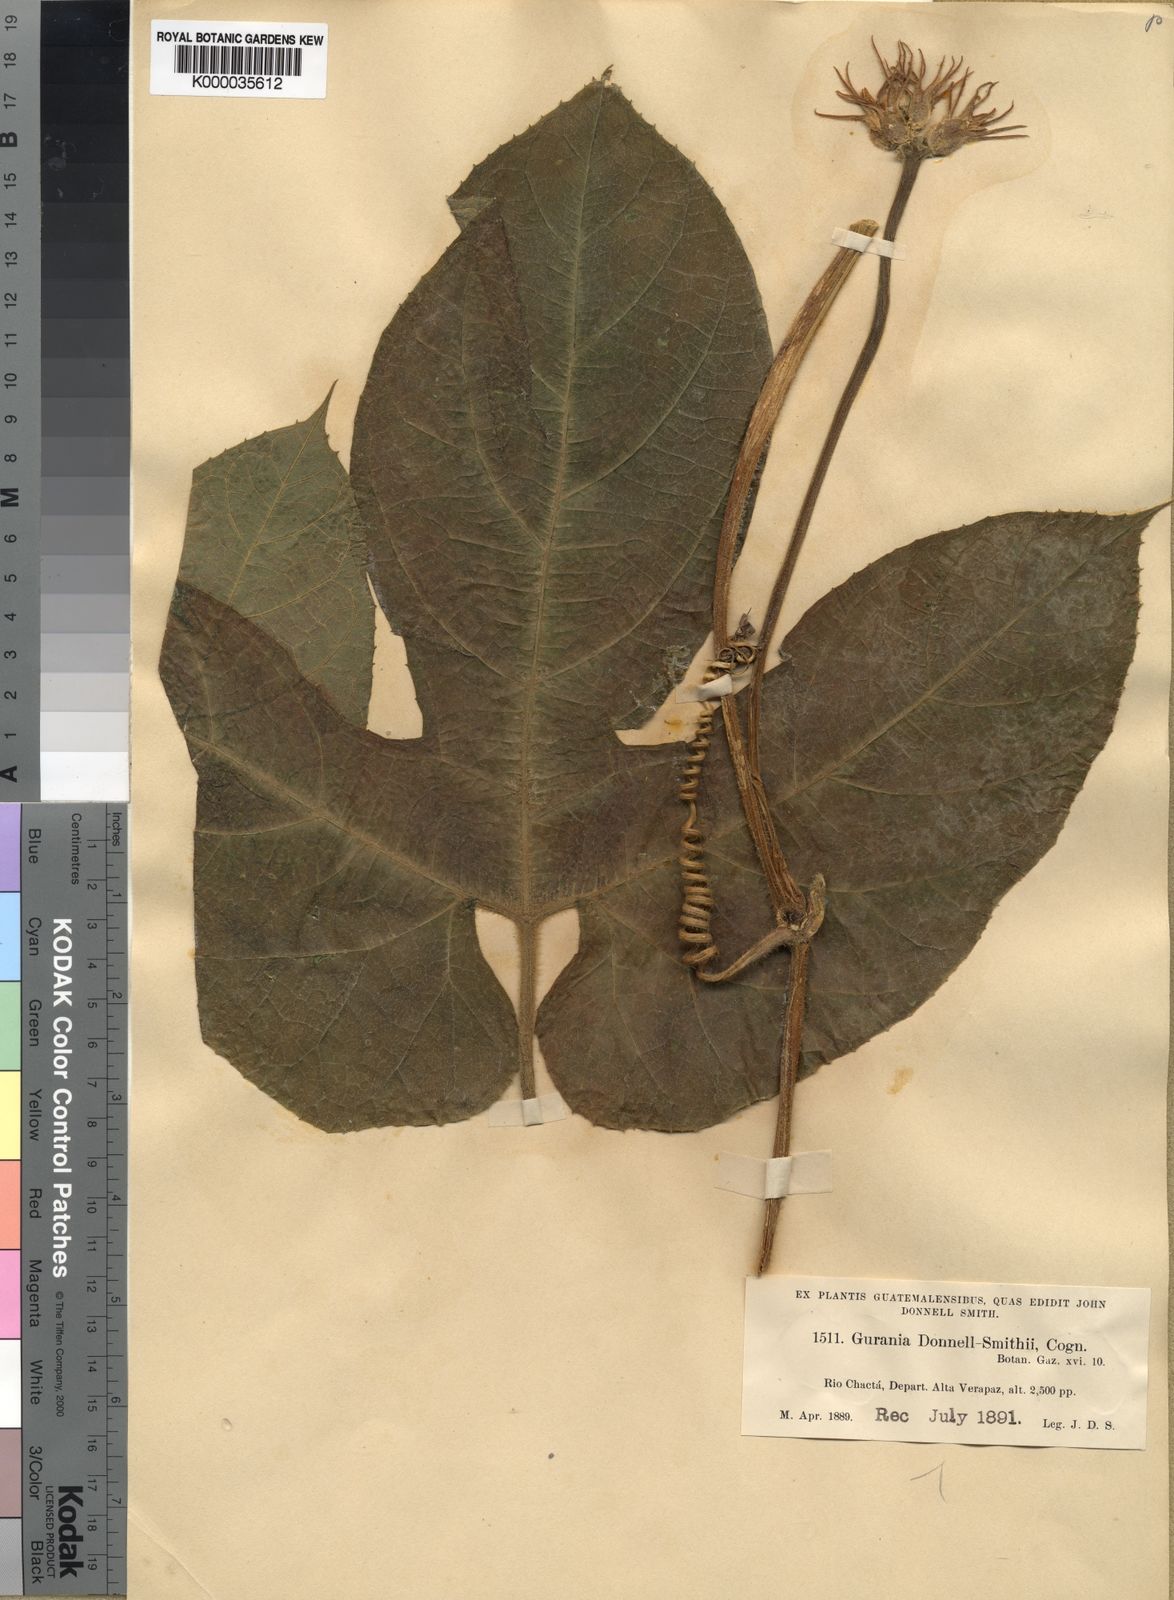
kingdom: Plantae
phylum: Tracheophyta
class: Magnoliopsida
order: Cucurbitales
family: Cucurbitaceae
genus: Gurania
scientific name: Gurania makoyana
